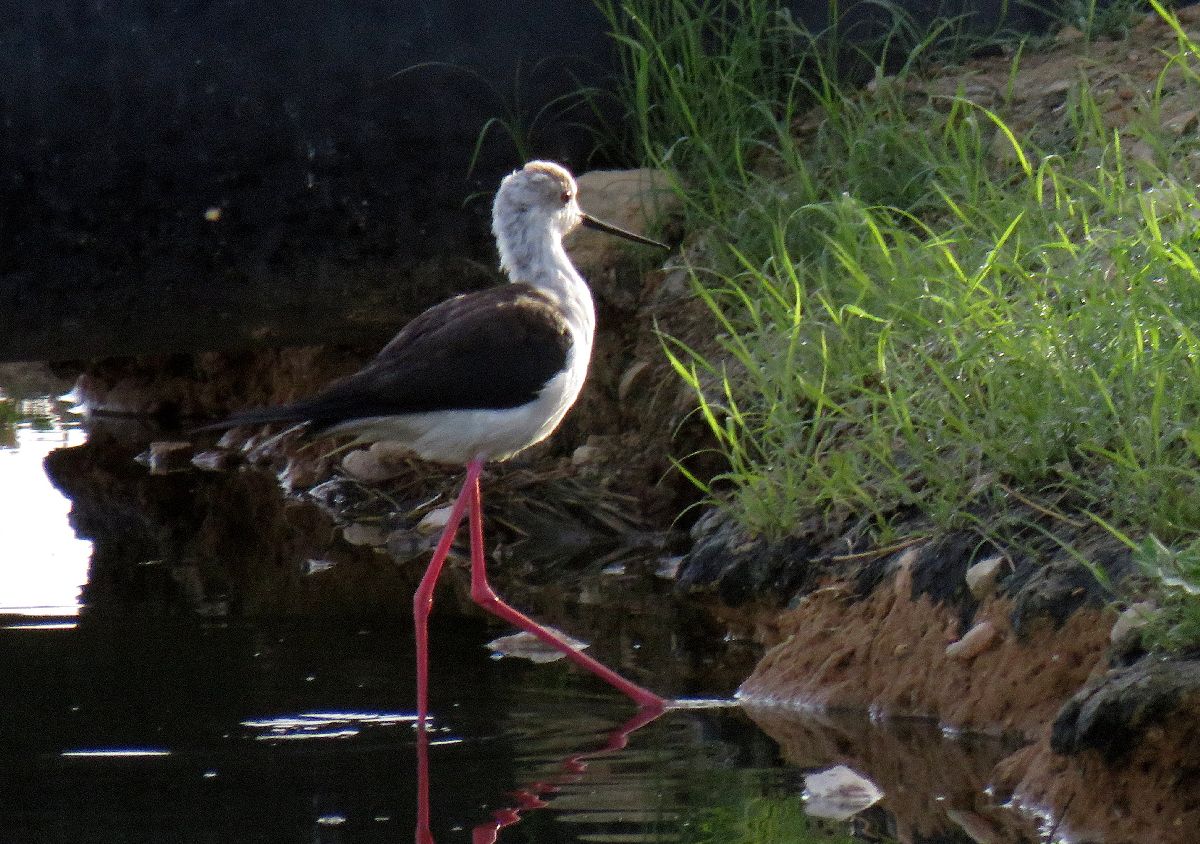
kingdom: Animalia
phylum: Chordata
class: Aves
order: Charadriiformes
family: Recurvirostridae
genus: Himantopus
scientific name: Himantopus himantopus
